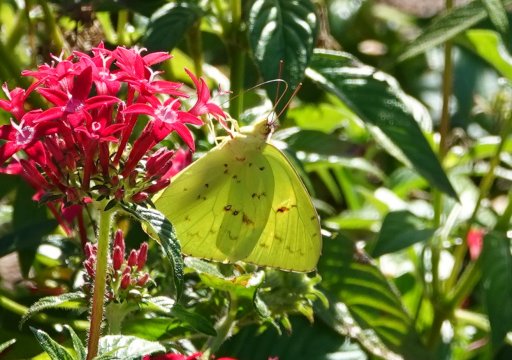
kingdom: Animalia
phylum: Arthropoda
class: Insecta
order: Lepidoptera
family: Pieridae
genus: Phoebis
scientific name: Phoebis sennae
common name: Cloudless Sulphur
